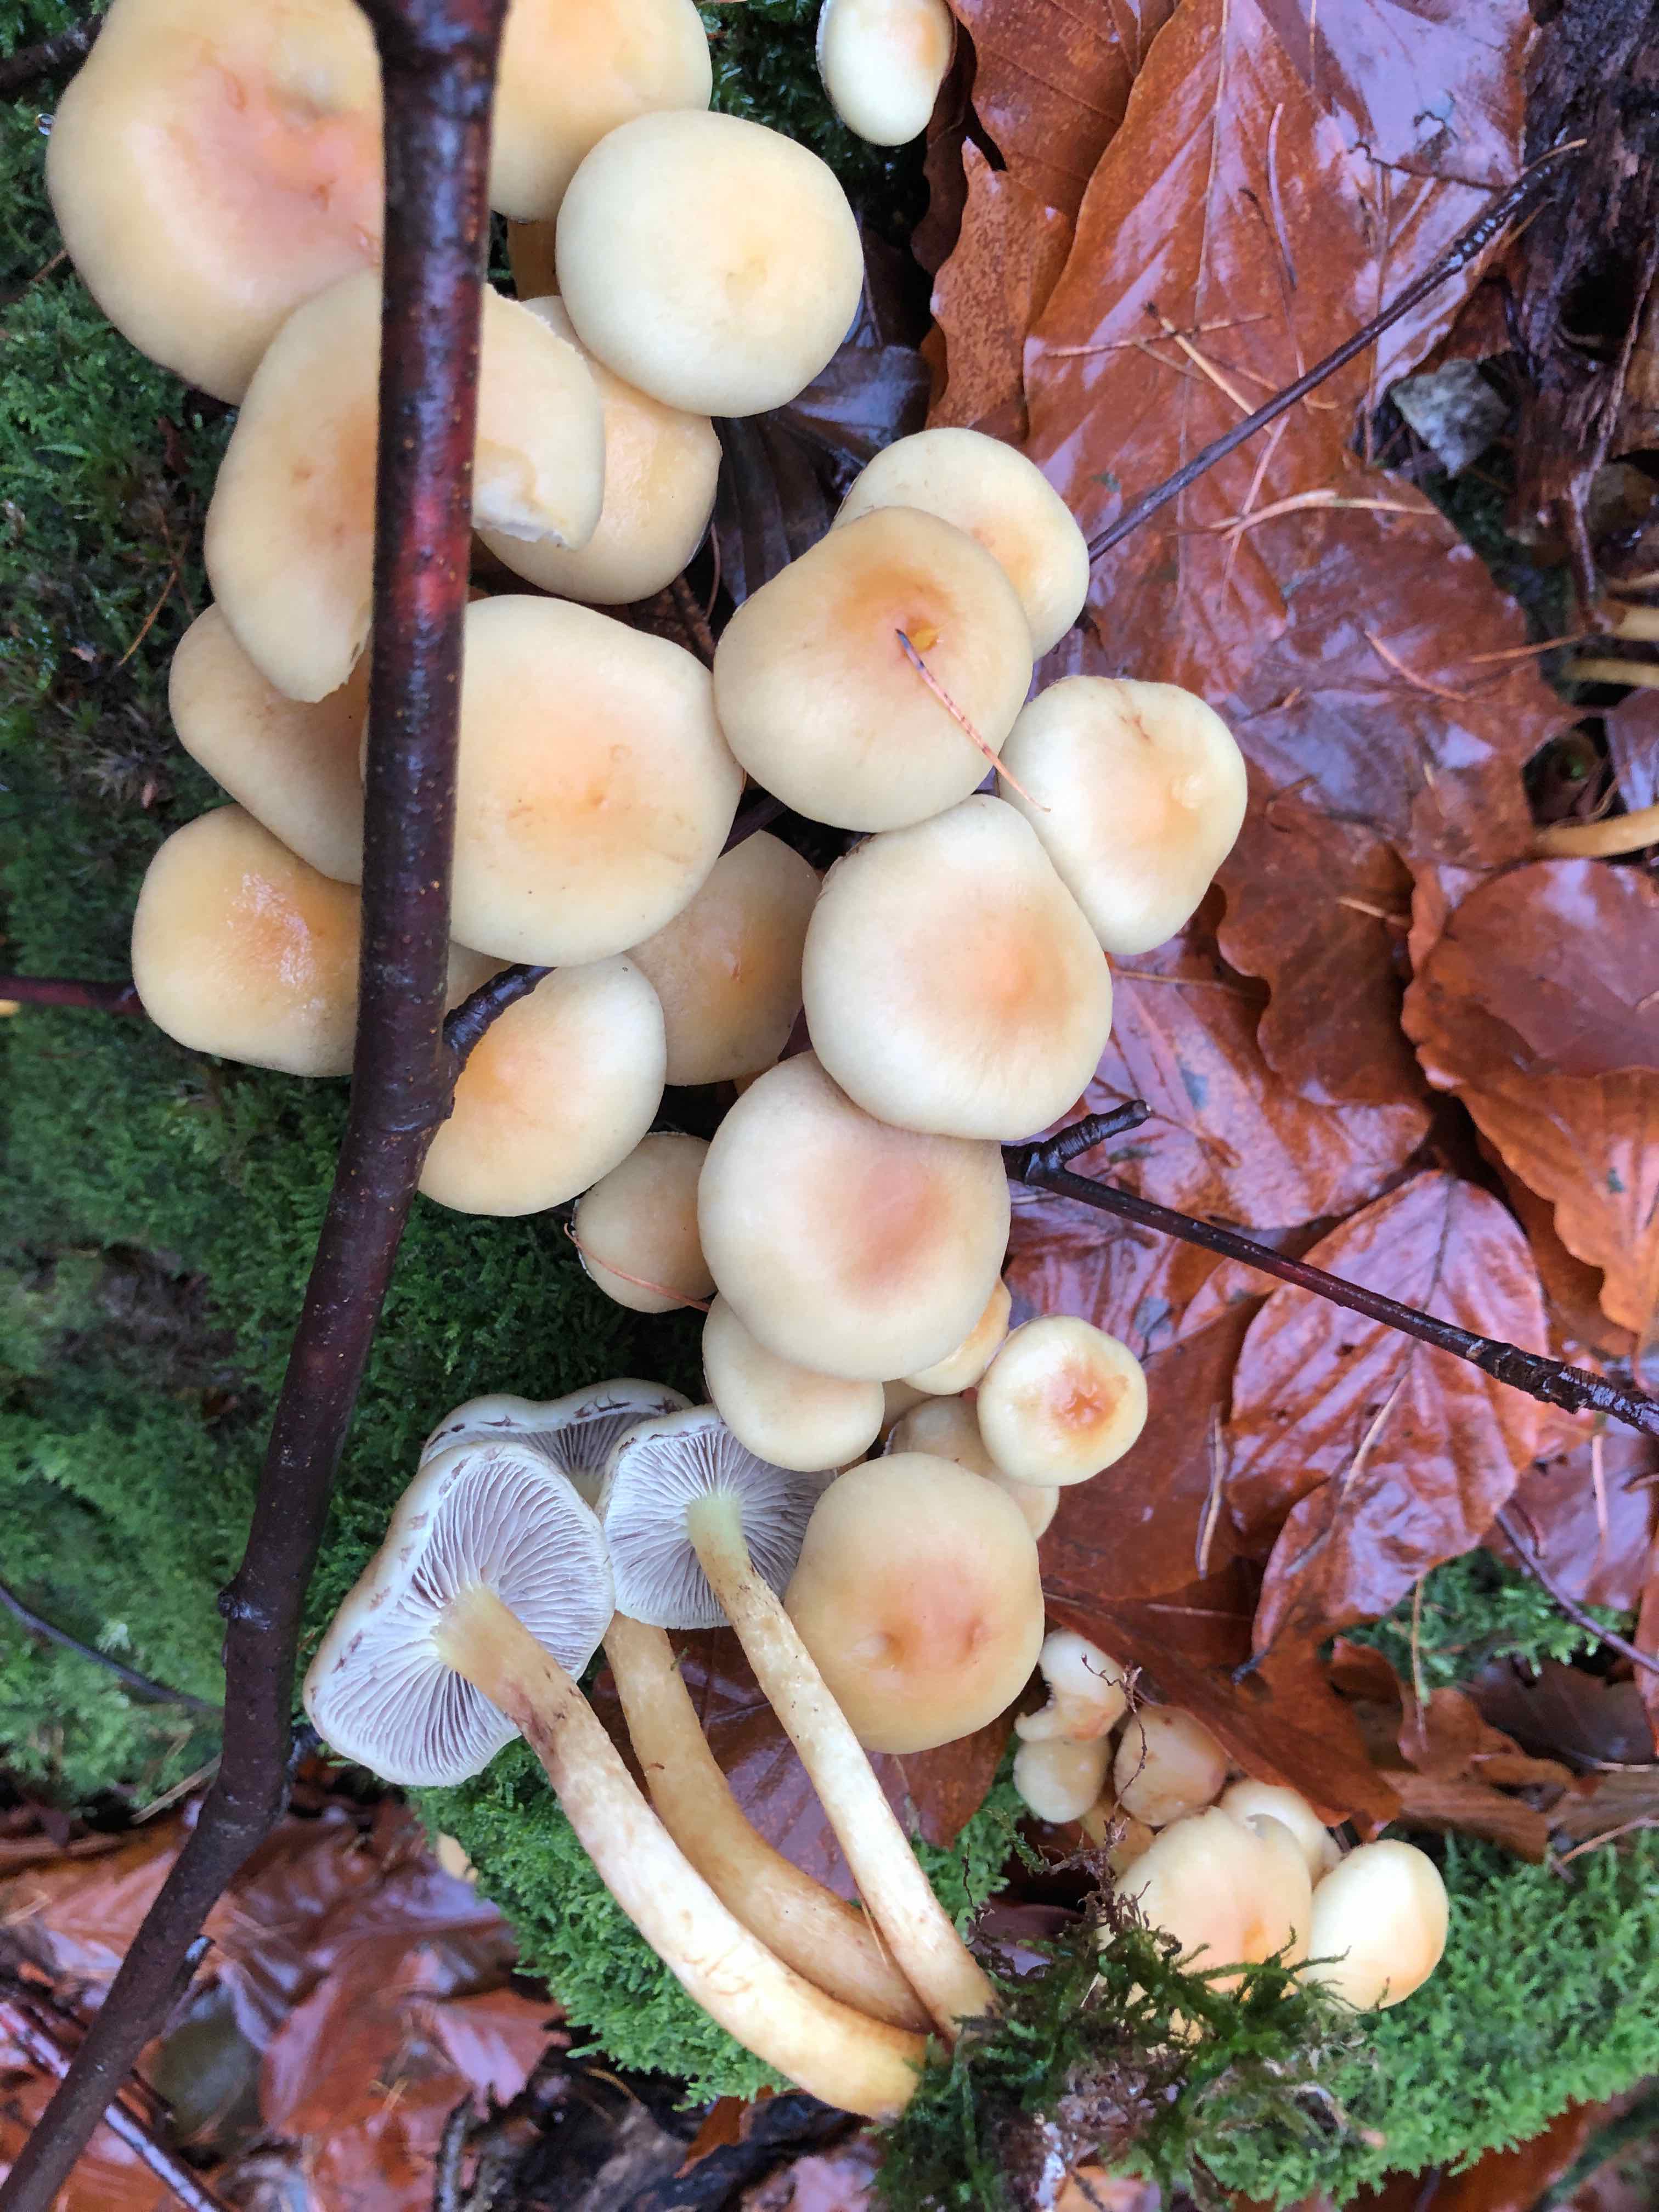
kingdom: Fungi
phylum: Basidiomycota
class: Agaricomycetes
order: Agaricales
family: Strophariaceae
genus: Hypholoma
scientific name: Hypholoma fasciculare
